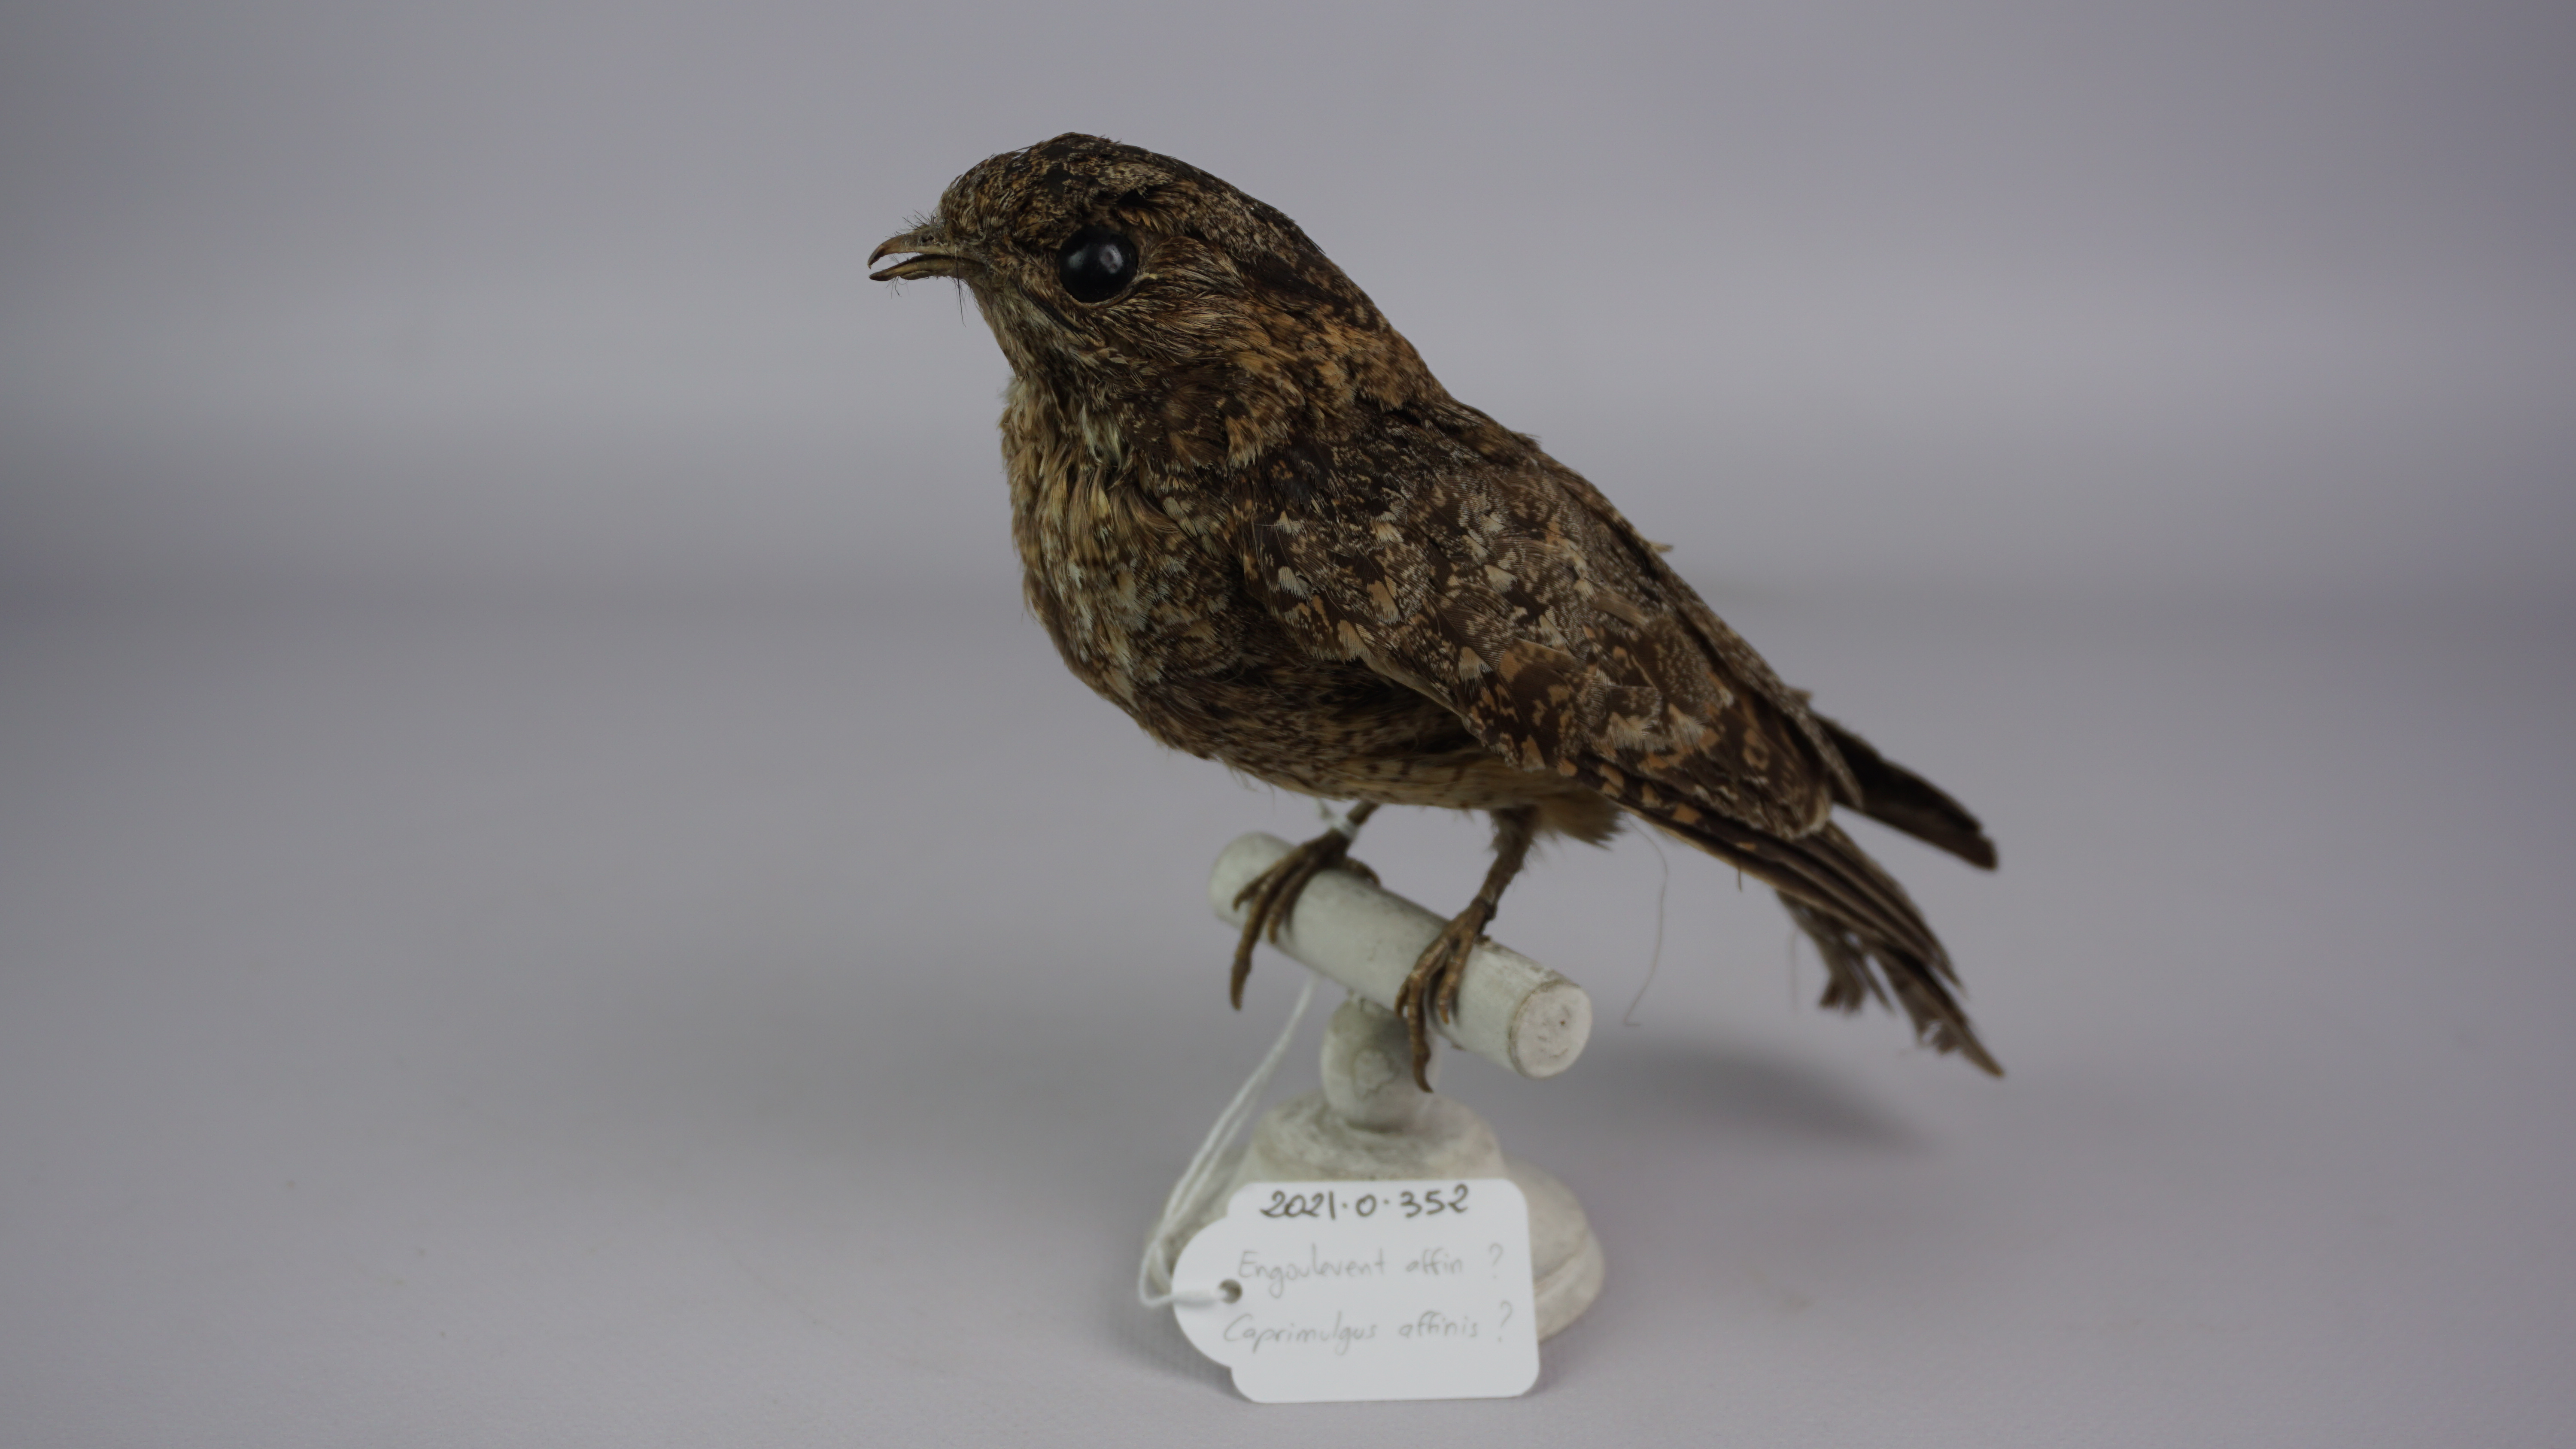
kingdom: Animalia
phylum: Chordata
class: Aves
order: Caprimulgiformes
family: Caprimulgidae
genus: Caprimulgus
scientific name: Caprimulgus affinis
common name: Savanna nightjar
